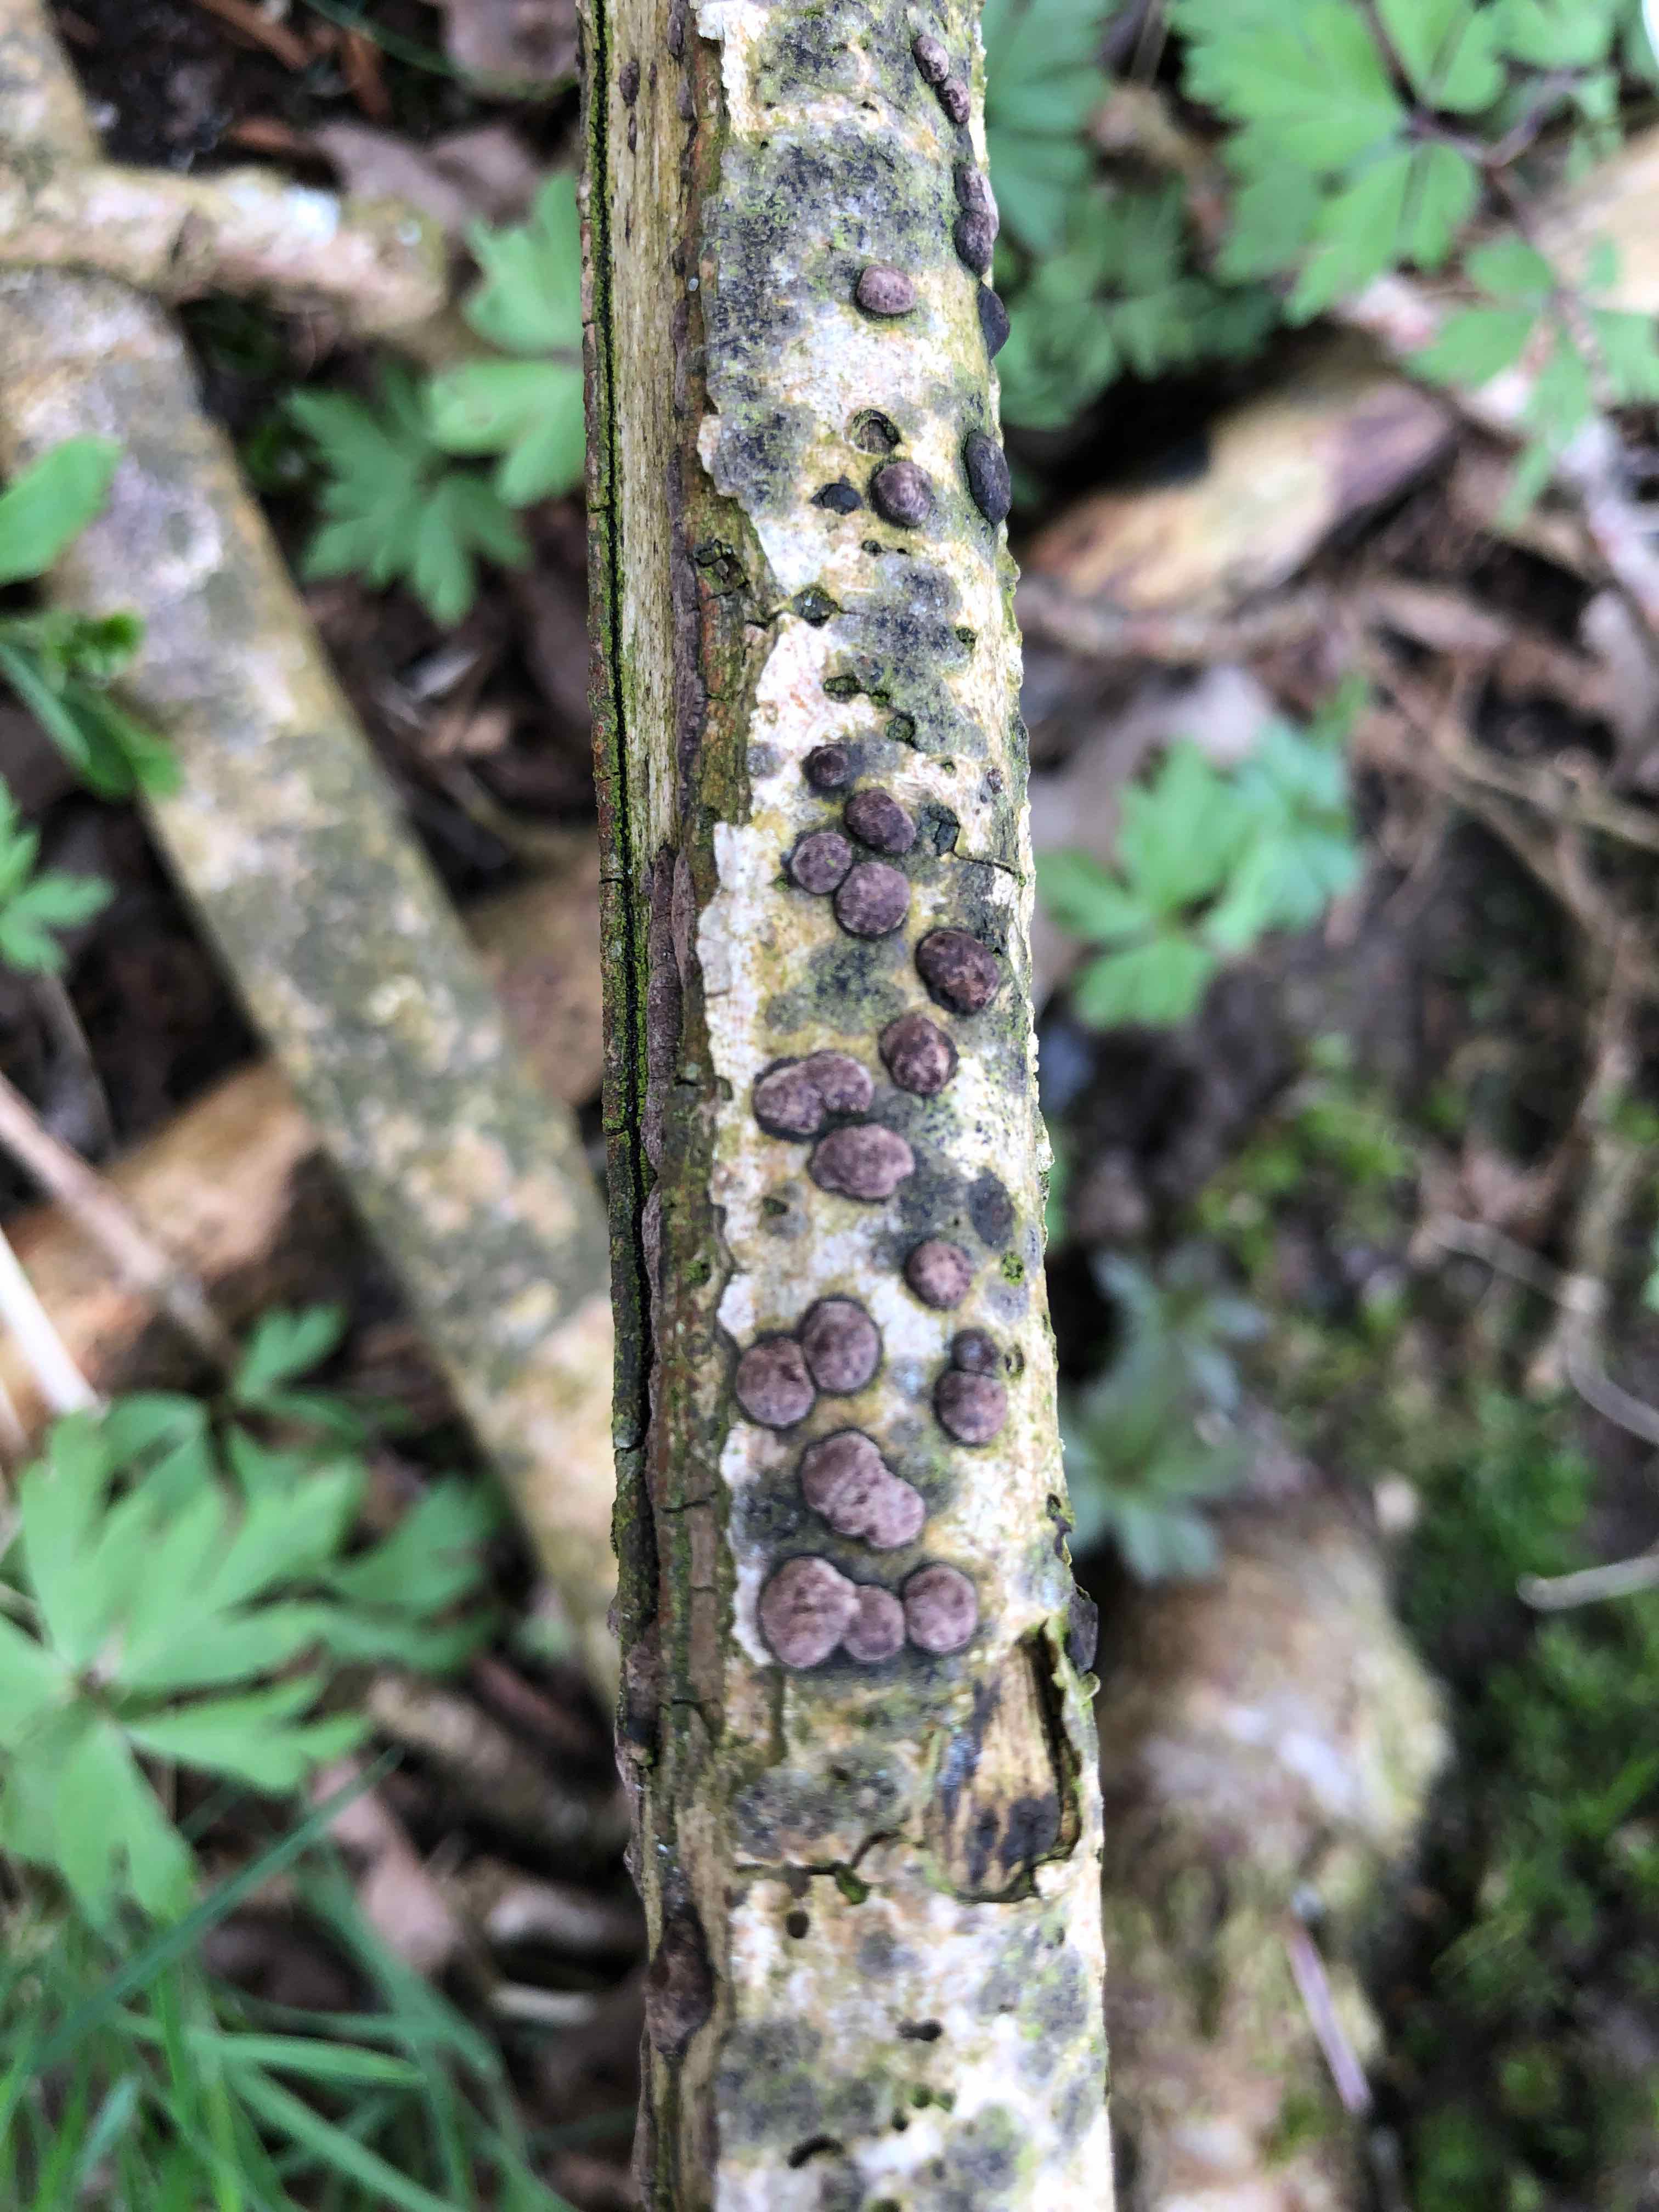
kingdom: Fungi
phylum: Ascomycota
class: Sordariomycetes
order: Xylariales
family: Hypoxylaceae
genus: Hypoxylon
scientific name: Hypoxylon fuscum
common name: kegleformet kulbær
